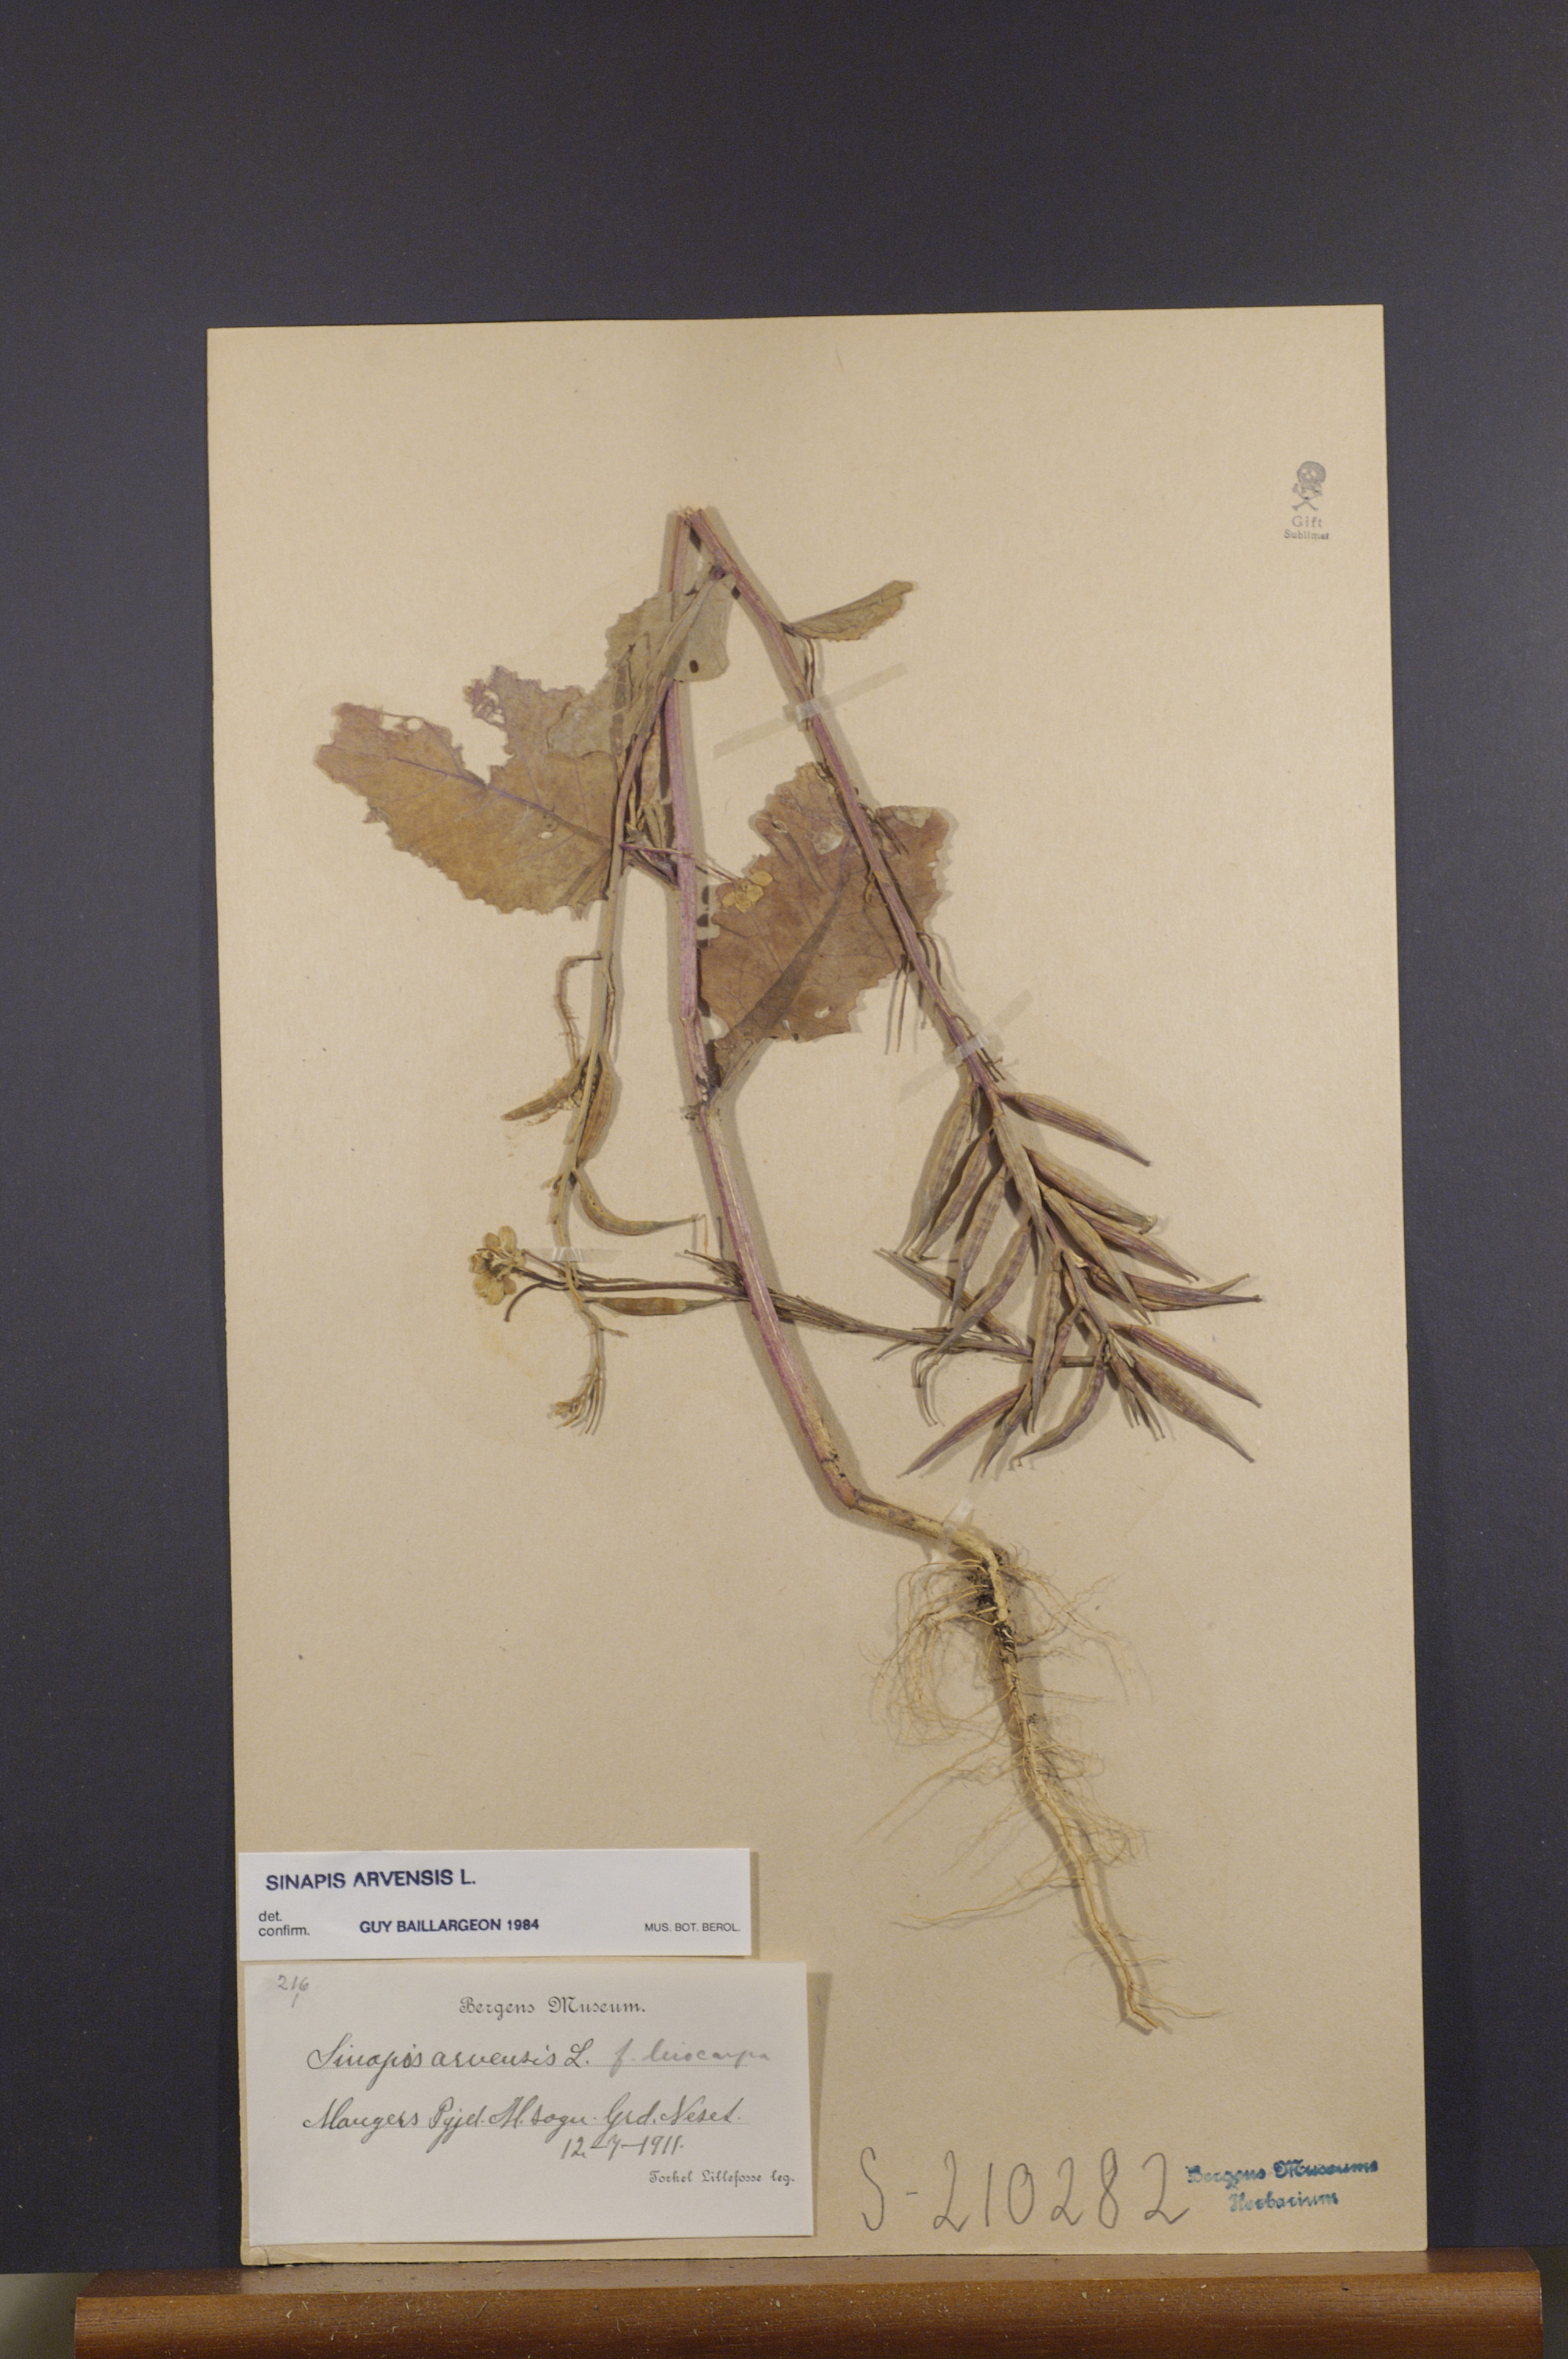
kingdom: Plantae
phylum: Tracheophyta
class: Magnoliopsida
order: Brassicales
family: Brassicaceae
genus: Sinapis
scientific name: Sinapis arvensis
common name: Charlock
